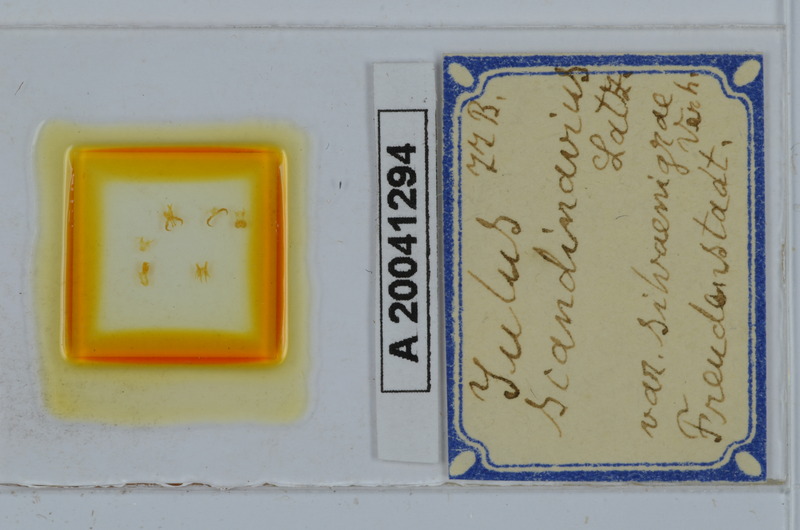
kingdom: Animalia
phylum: Arthropoda
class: Diplopoda
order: Julida
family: Julidae
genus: Julus
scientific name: Julus scandinavius
